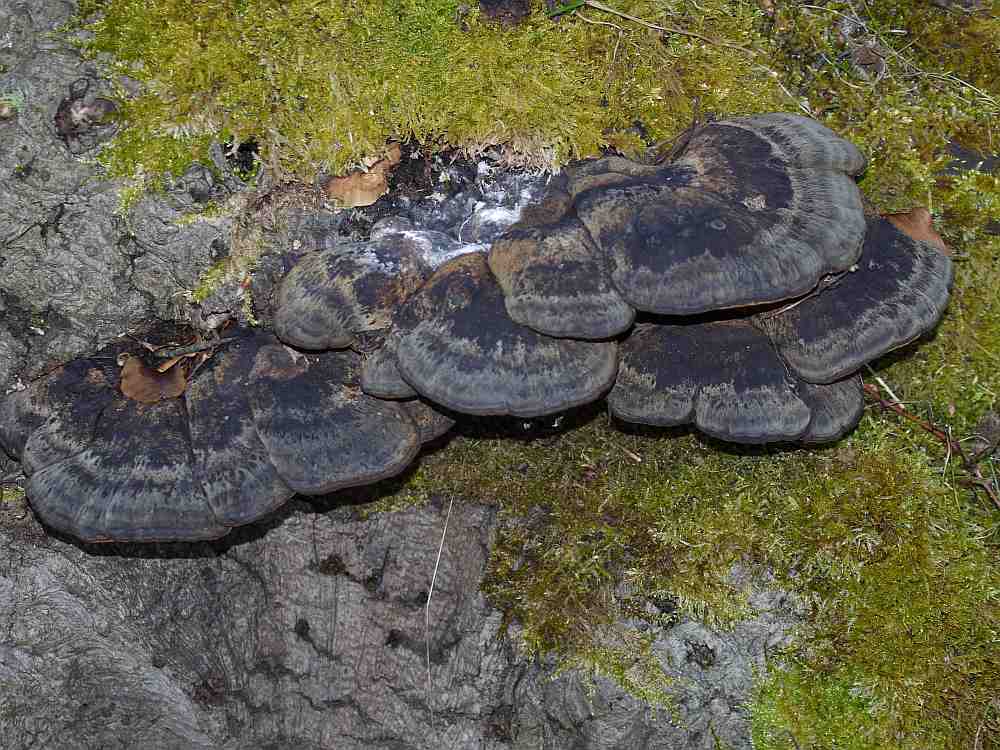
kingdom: Fungi
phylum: Basidiomycota
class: Agaricomycetes
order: Polyporales
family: Ischnodermataceae
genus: Ischnoderma
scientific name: Ischnoderma resinosum
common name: løv-tjæreporesvamp
